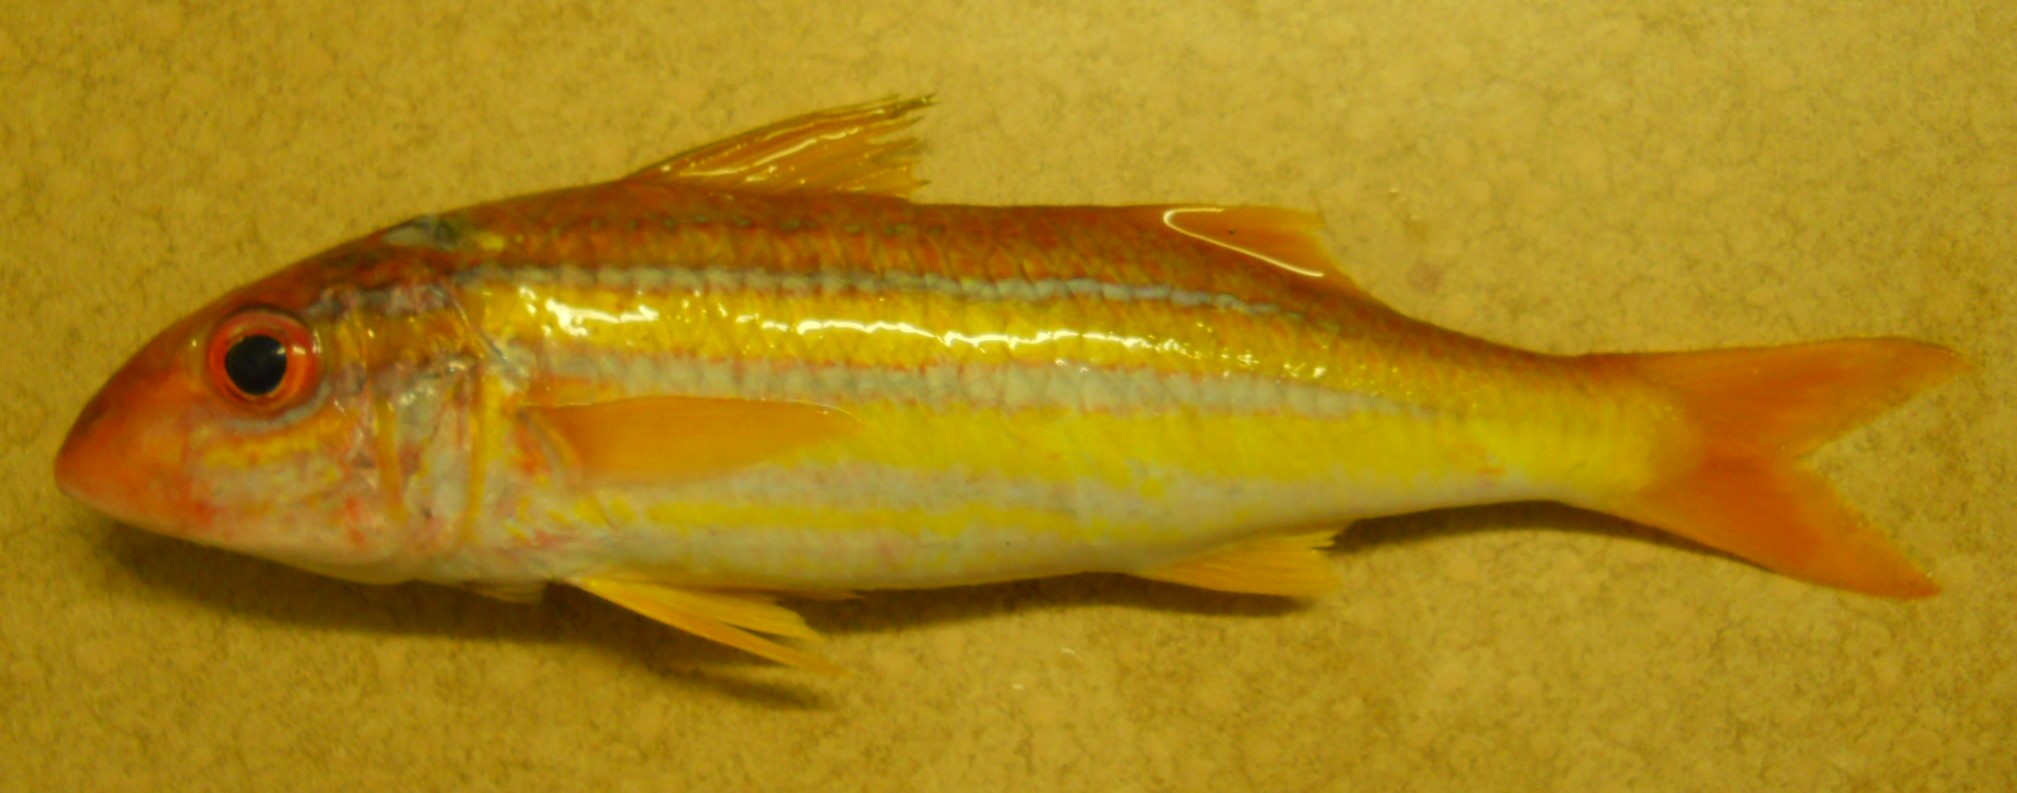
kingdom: Animalia
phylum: Chordata
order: Perciformes
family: Mullidae
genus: Mulloidichthys
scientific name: Mulloidichthys
